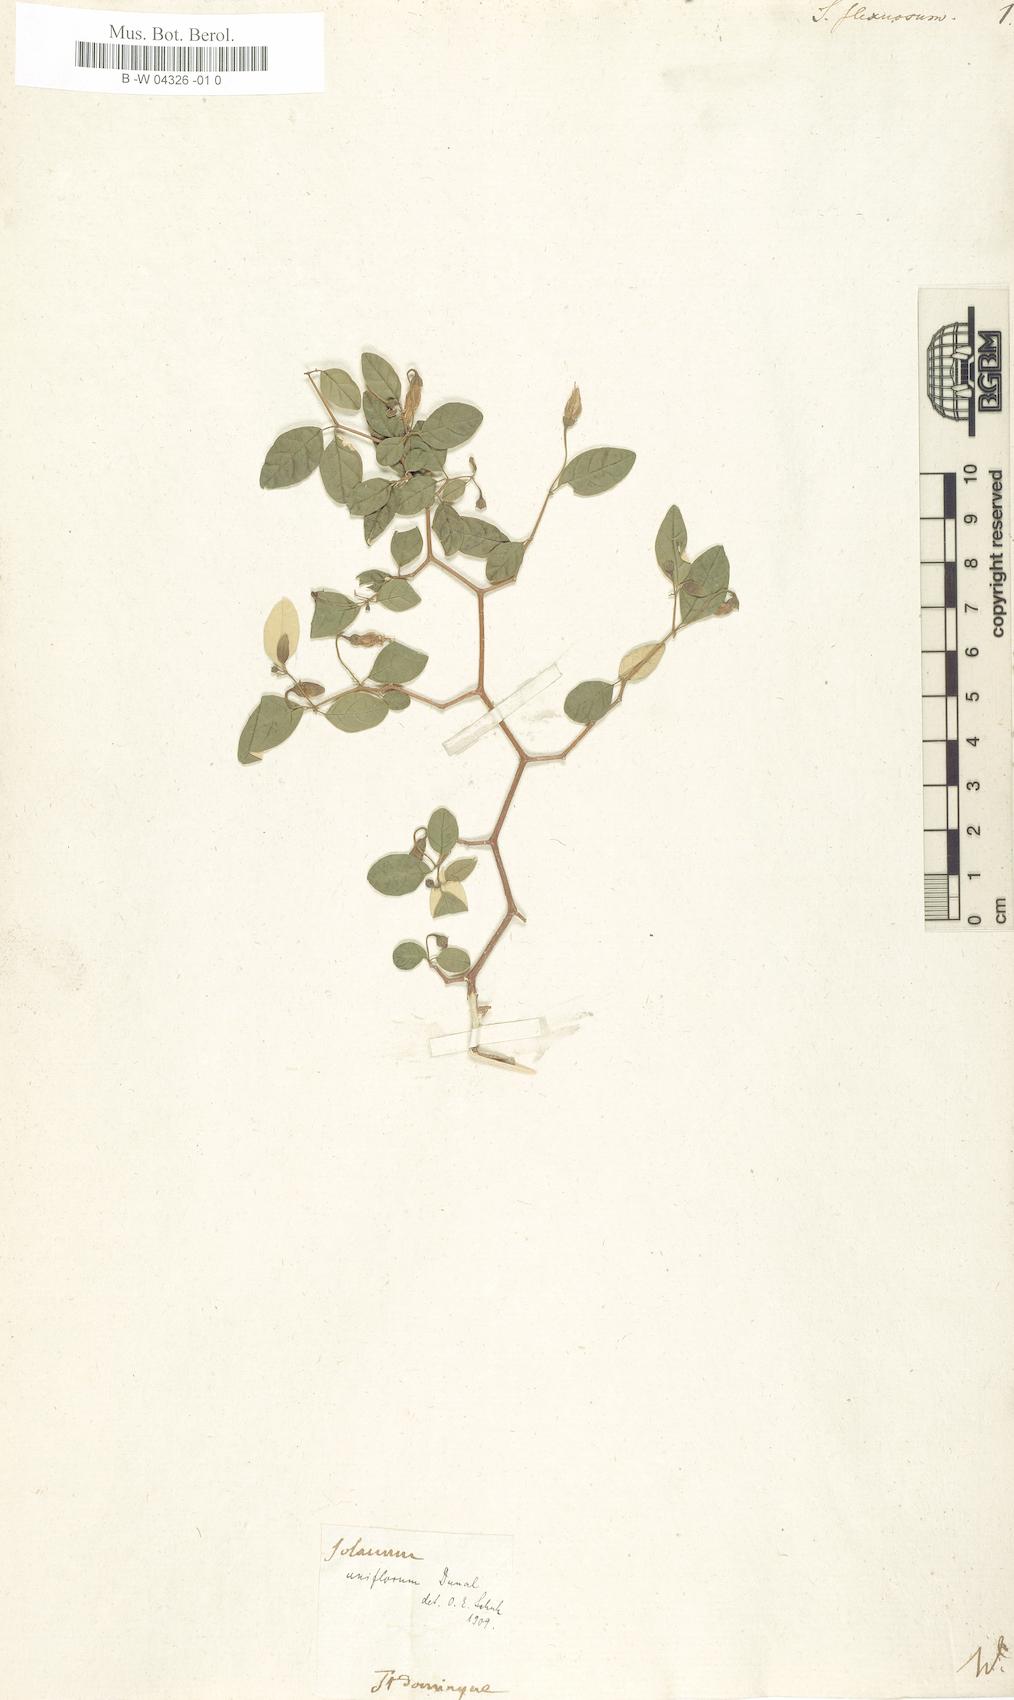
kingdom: Plantae
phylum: Tracheophyta
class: Magnoliopsida
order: Solanales
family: Solanaceae
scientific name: Solanaceae
